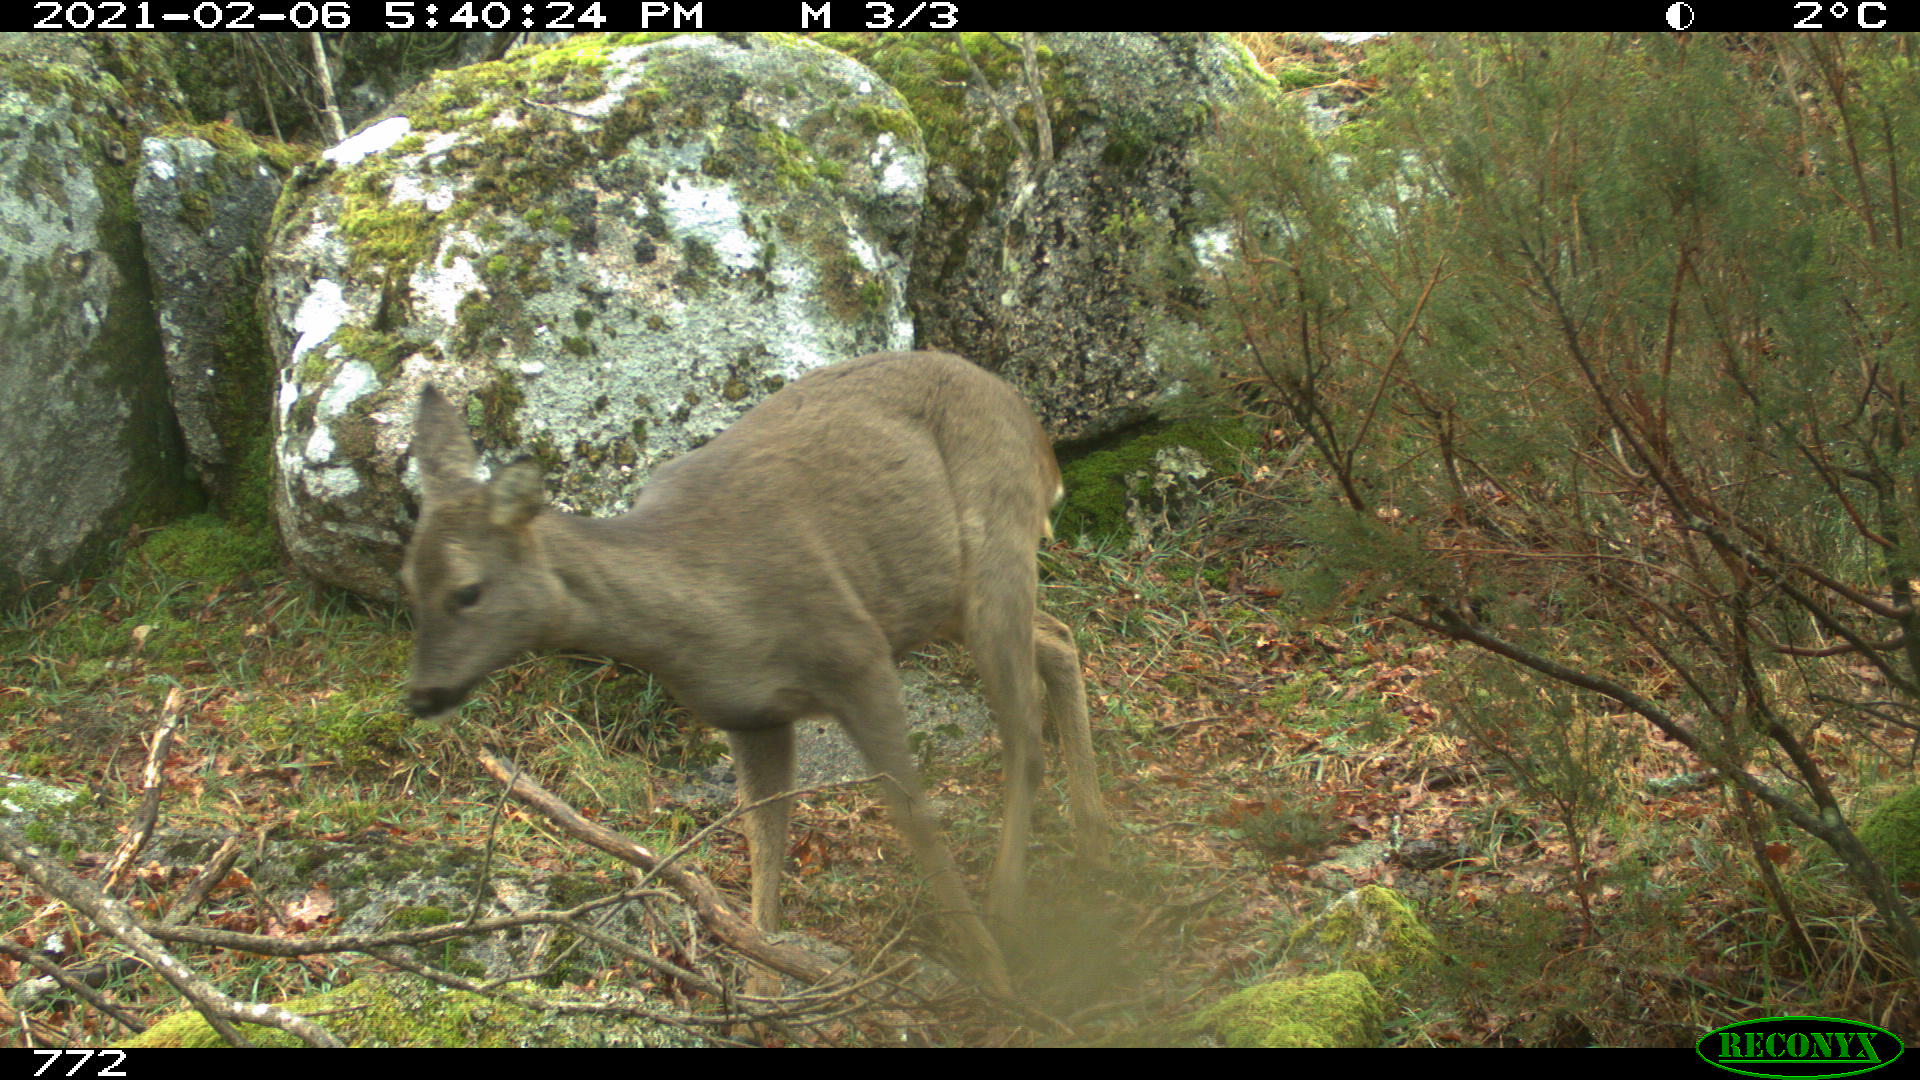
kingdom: Animalia
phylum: Chordata
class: Mammalia
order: Artiodactyla
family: Cervidae
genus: Capreolus
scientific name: Capreolus capreolus
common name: Western roe deer
